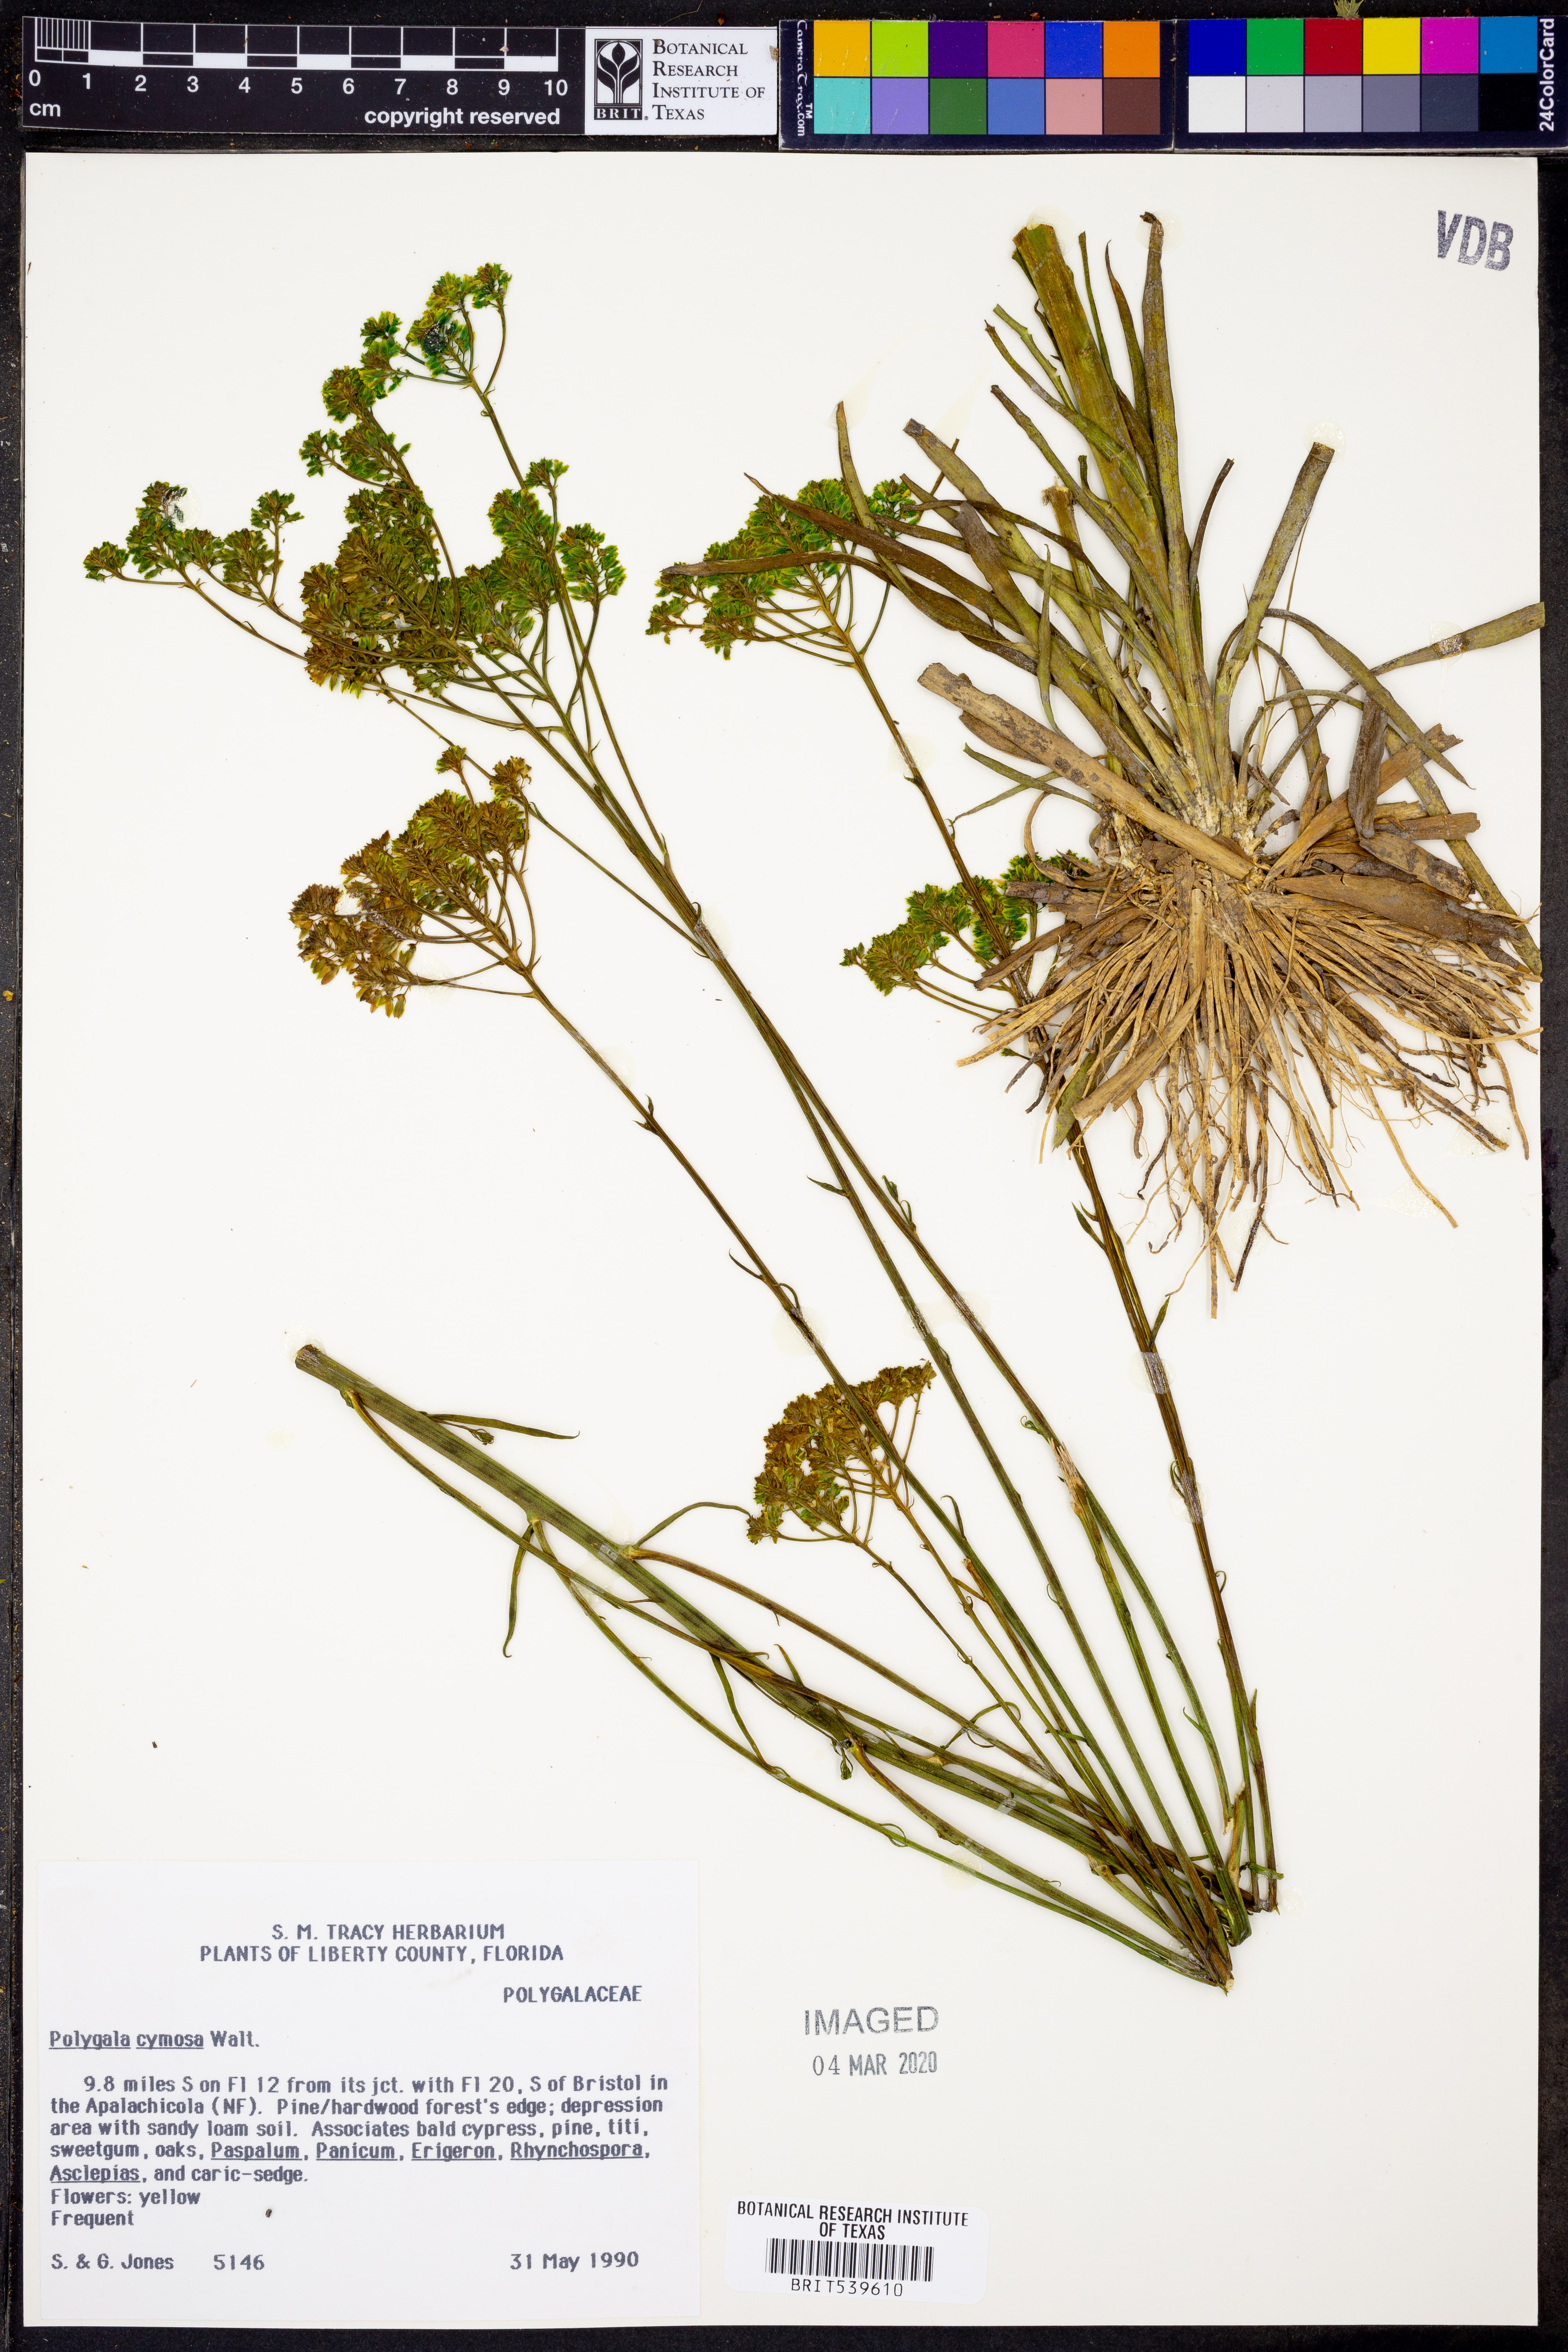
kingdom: Plantae
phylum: Tracheophyta
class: Magnoliopsida
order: Fabales
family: Polygalaceae
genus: Polygala
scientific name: Polygala cymosa
